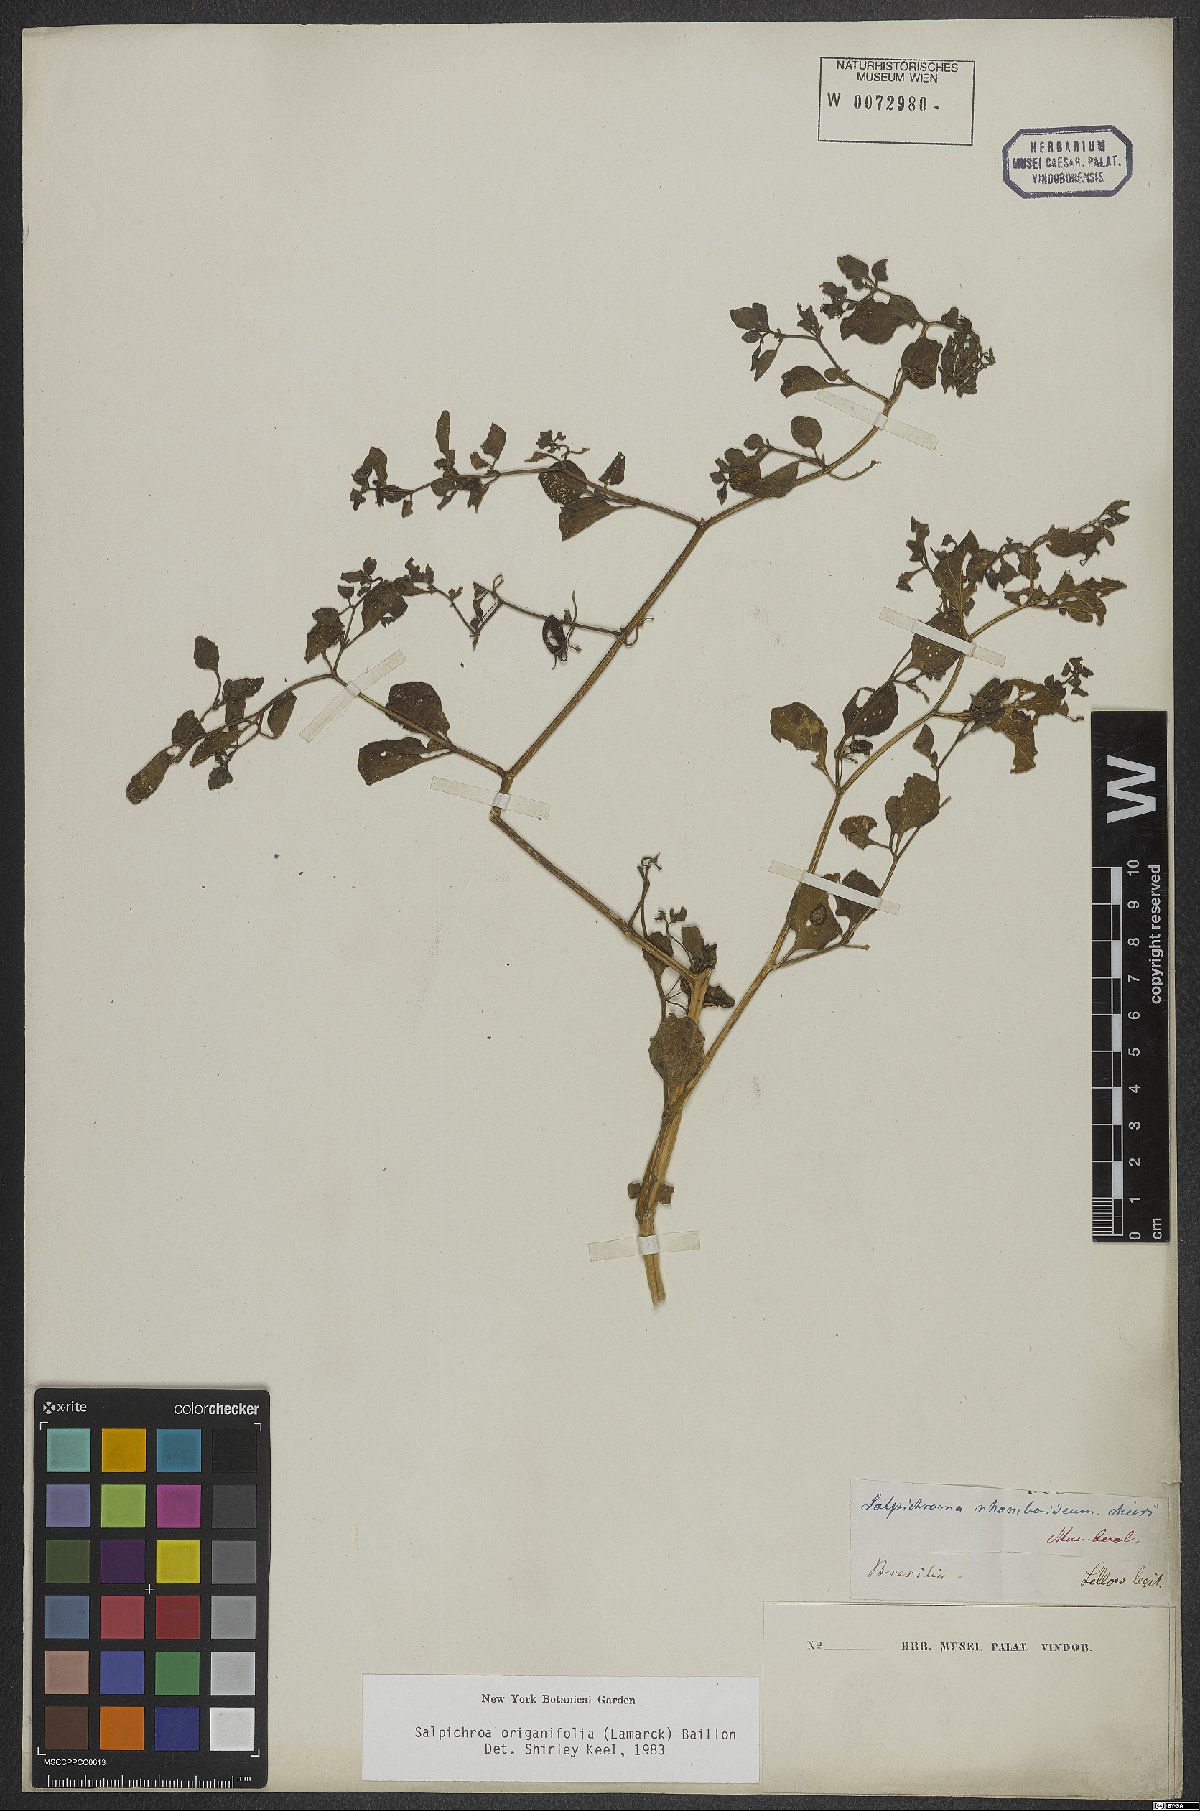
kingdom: Plantae
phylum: Tracheophyta
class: Magnoliopsida
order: Solanales
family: Solanaceae
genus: Salpichroa
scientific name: Salpichroa origanifolia
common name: Lily-of-the-valley-vine
